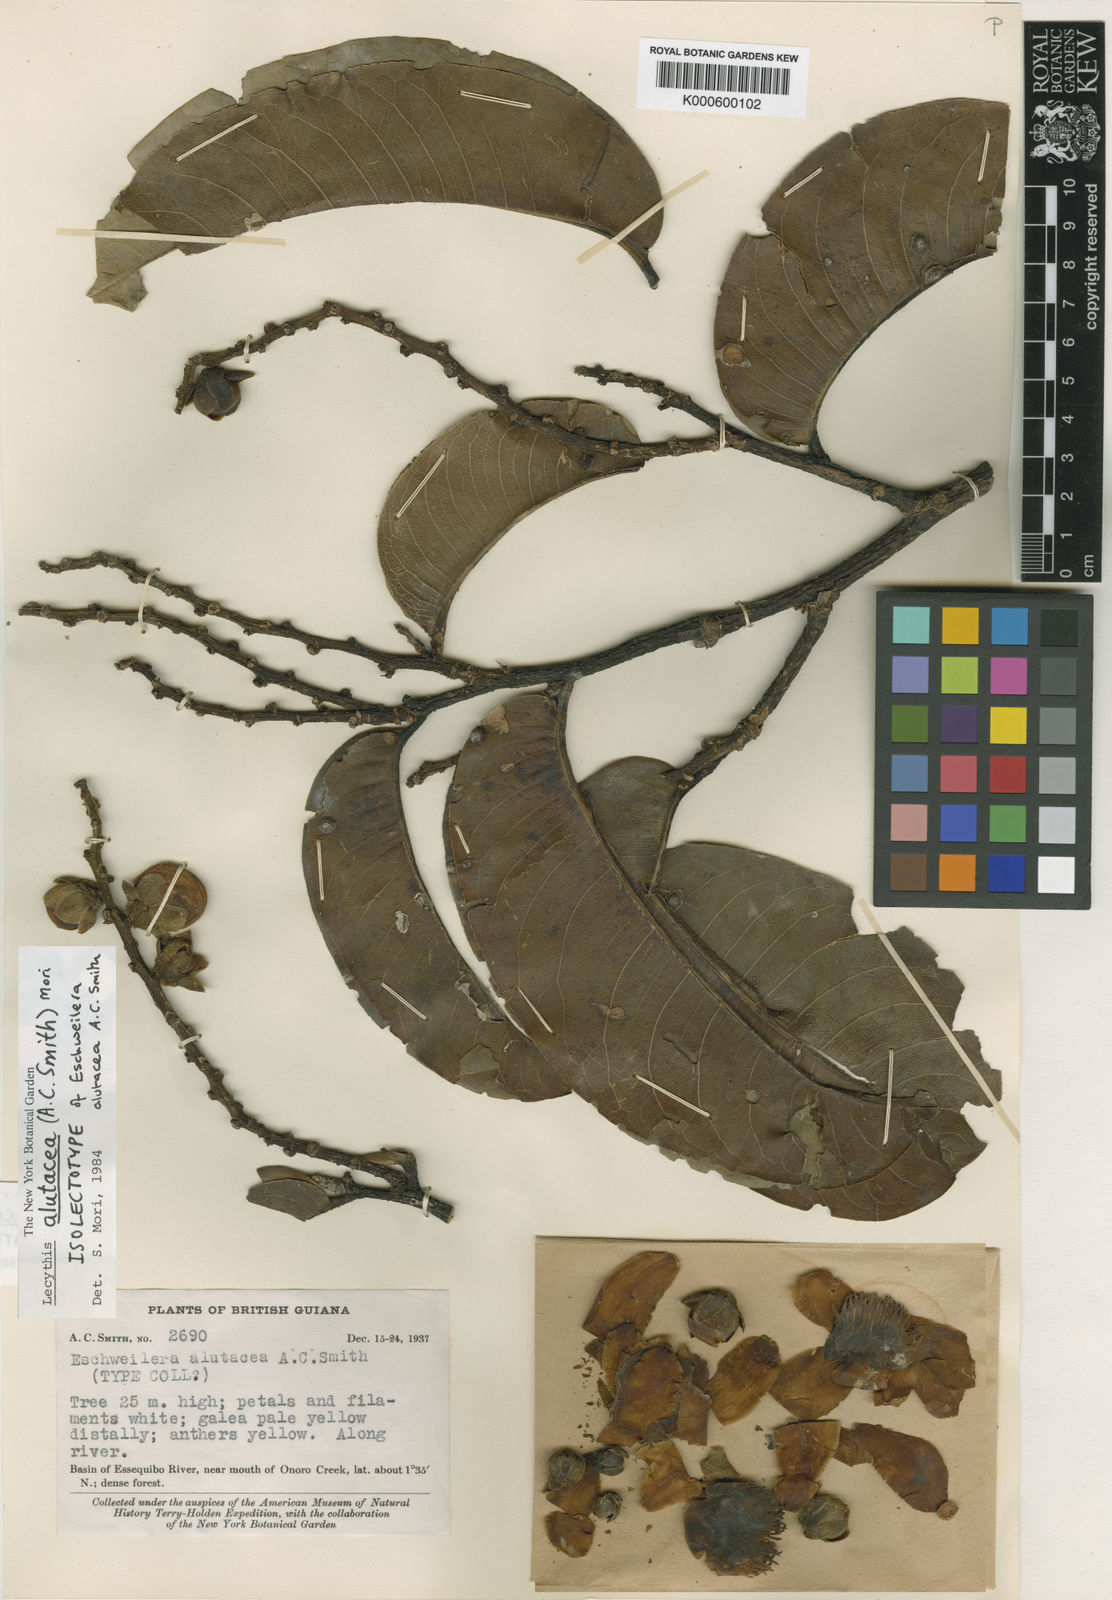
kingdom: Plantae
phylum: Tracheophyta
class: Magnoliopsida
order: Ericales
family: Lecythidaceae
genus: Lecythis
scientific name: Lecythis alutacea
